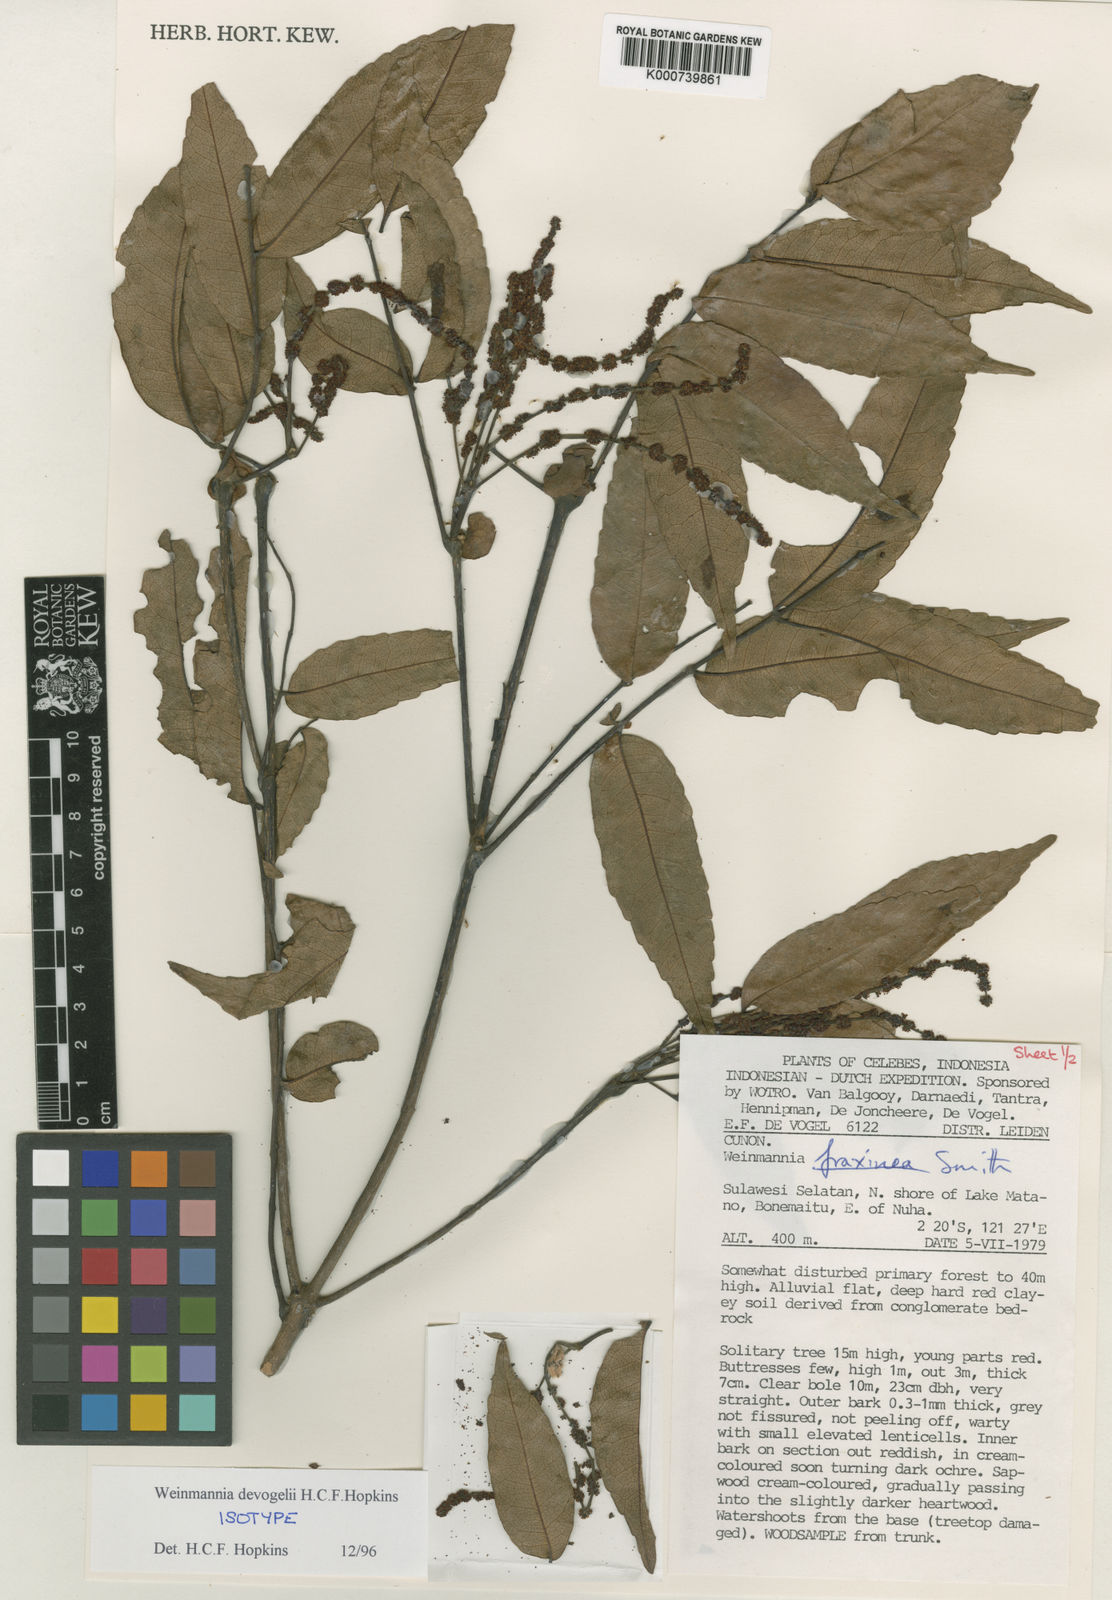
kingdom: Plantae
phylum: Tracheophyta
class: Magnoliopsida
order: Oxalidales
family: Cunoniaceae
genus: Pterophylla
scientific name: Pterophylla devogelii
